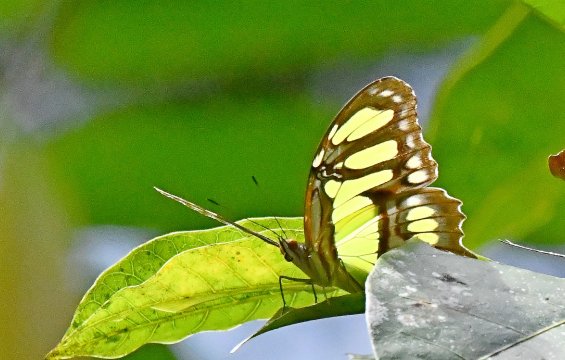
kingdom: Animalia
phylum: Arthropoda
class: Insecta
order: Lepidoptera
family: Nymphalidae
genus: Siproeta
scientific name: Siproeta stelenes
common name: Malachite
